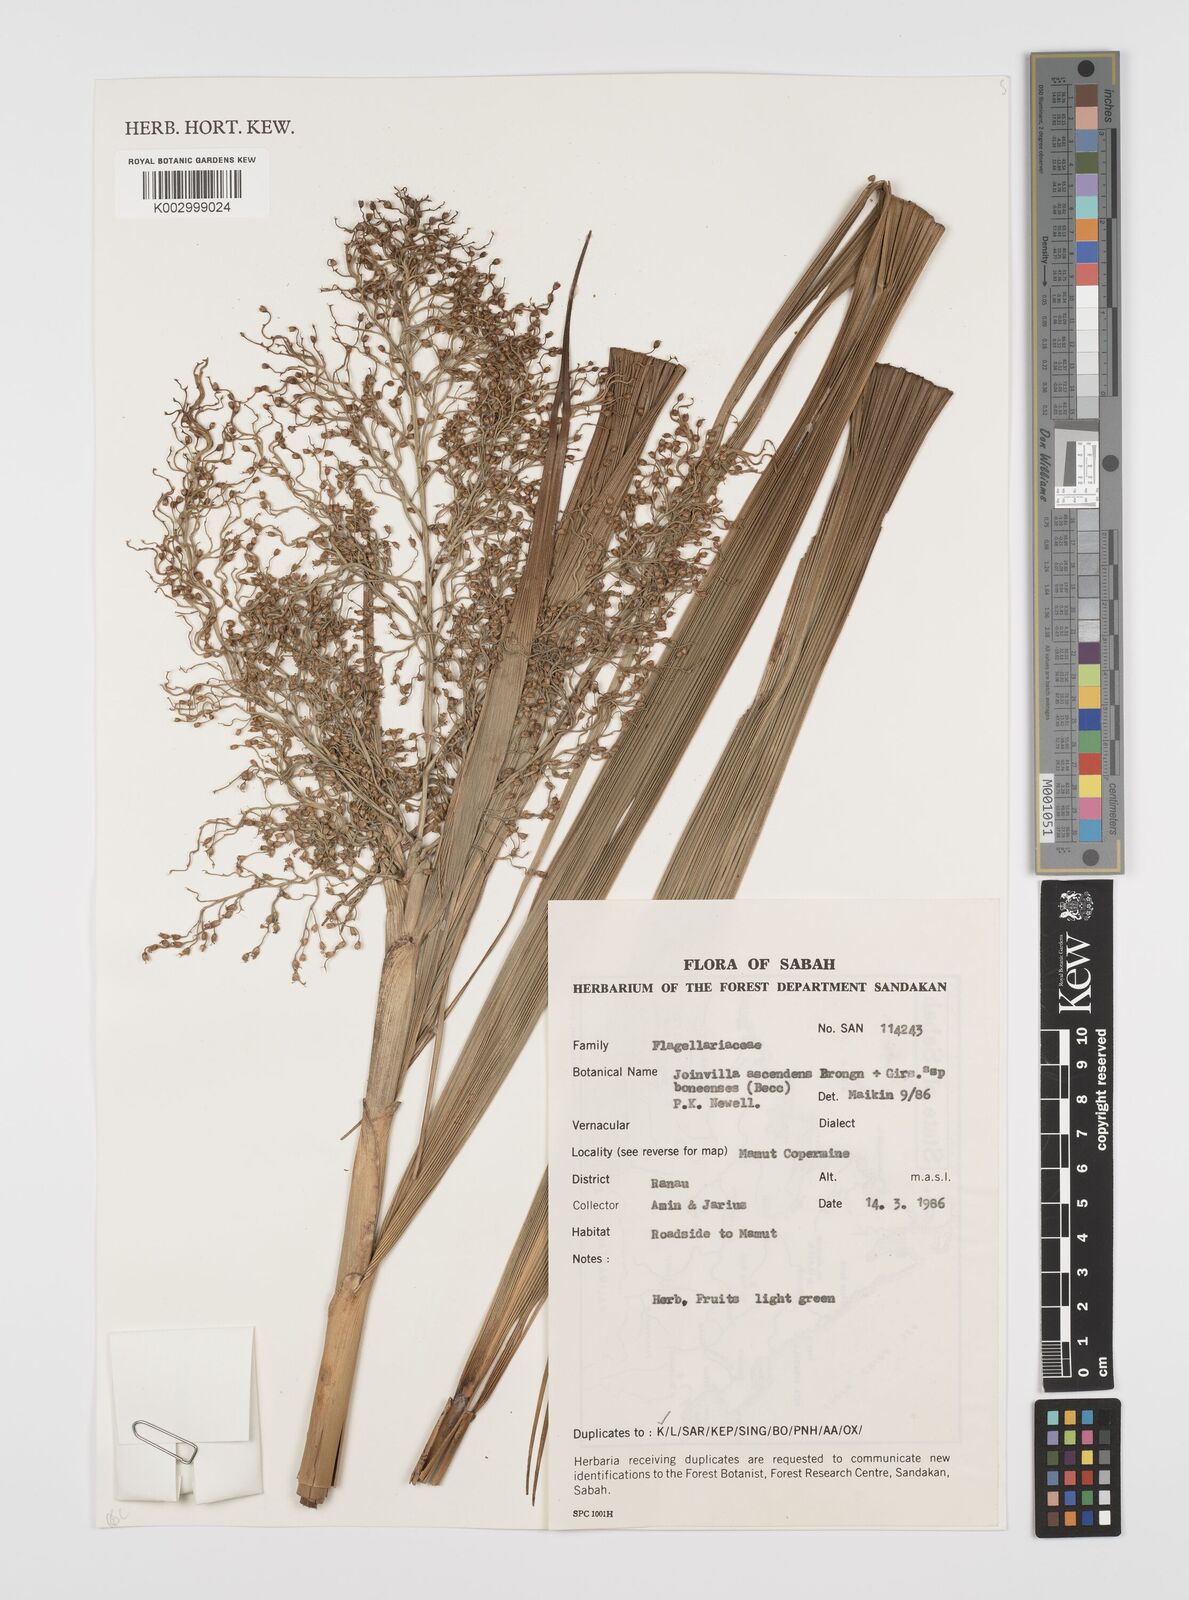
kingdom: Plantae
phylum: Tracheophyta
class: Liliopsida
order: Poales
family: Joinvilleaceae
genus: Joinvillea
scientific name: Joinvillea ascendens
